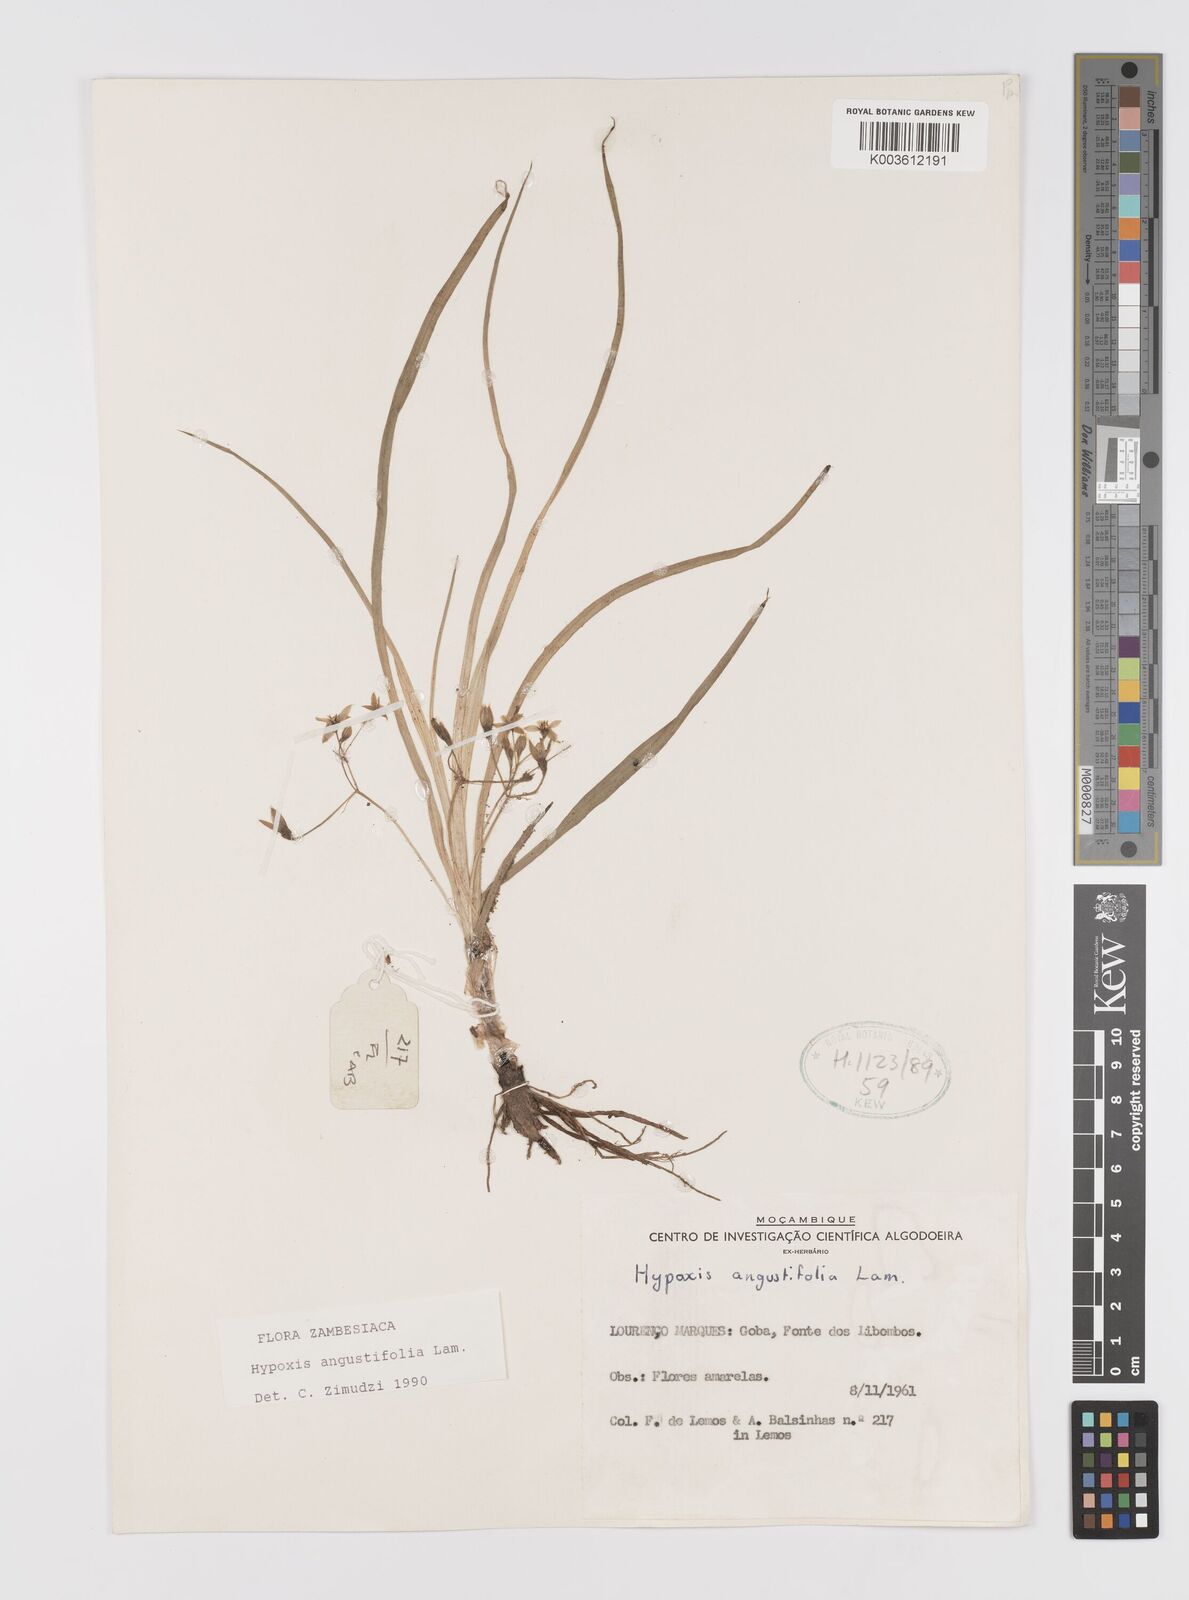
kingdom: Plantae
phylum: Tracheophyta
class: Liliopsida
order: Asparagales
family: Hypoxidaceae
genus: Hypoxis
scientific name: Hypoxis angustifolia
